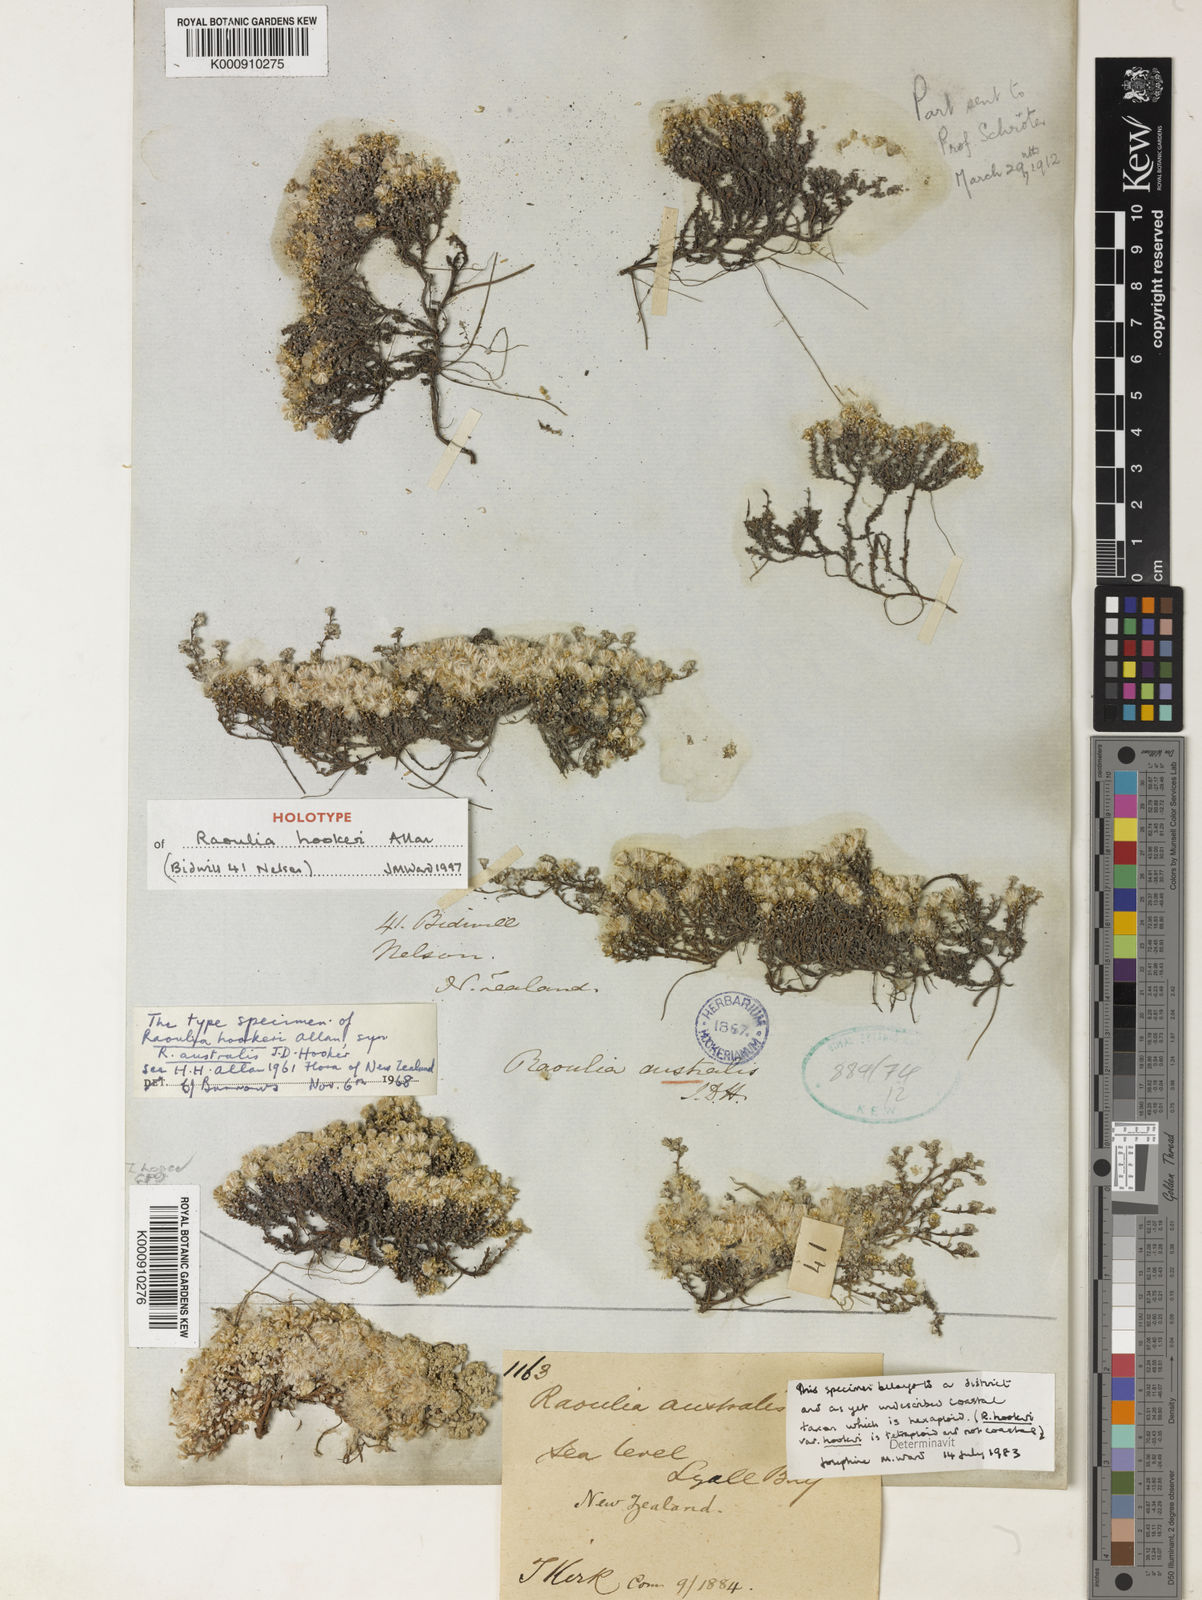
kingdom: Plantae
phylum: Tracheophyta
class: Magnoliopsida
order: Asterales
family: Asteraceae
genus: Raoulia
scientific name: Raoulia hookeri
